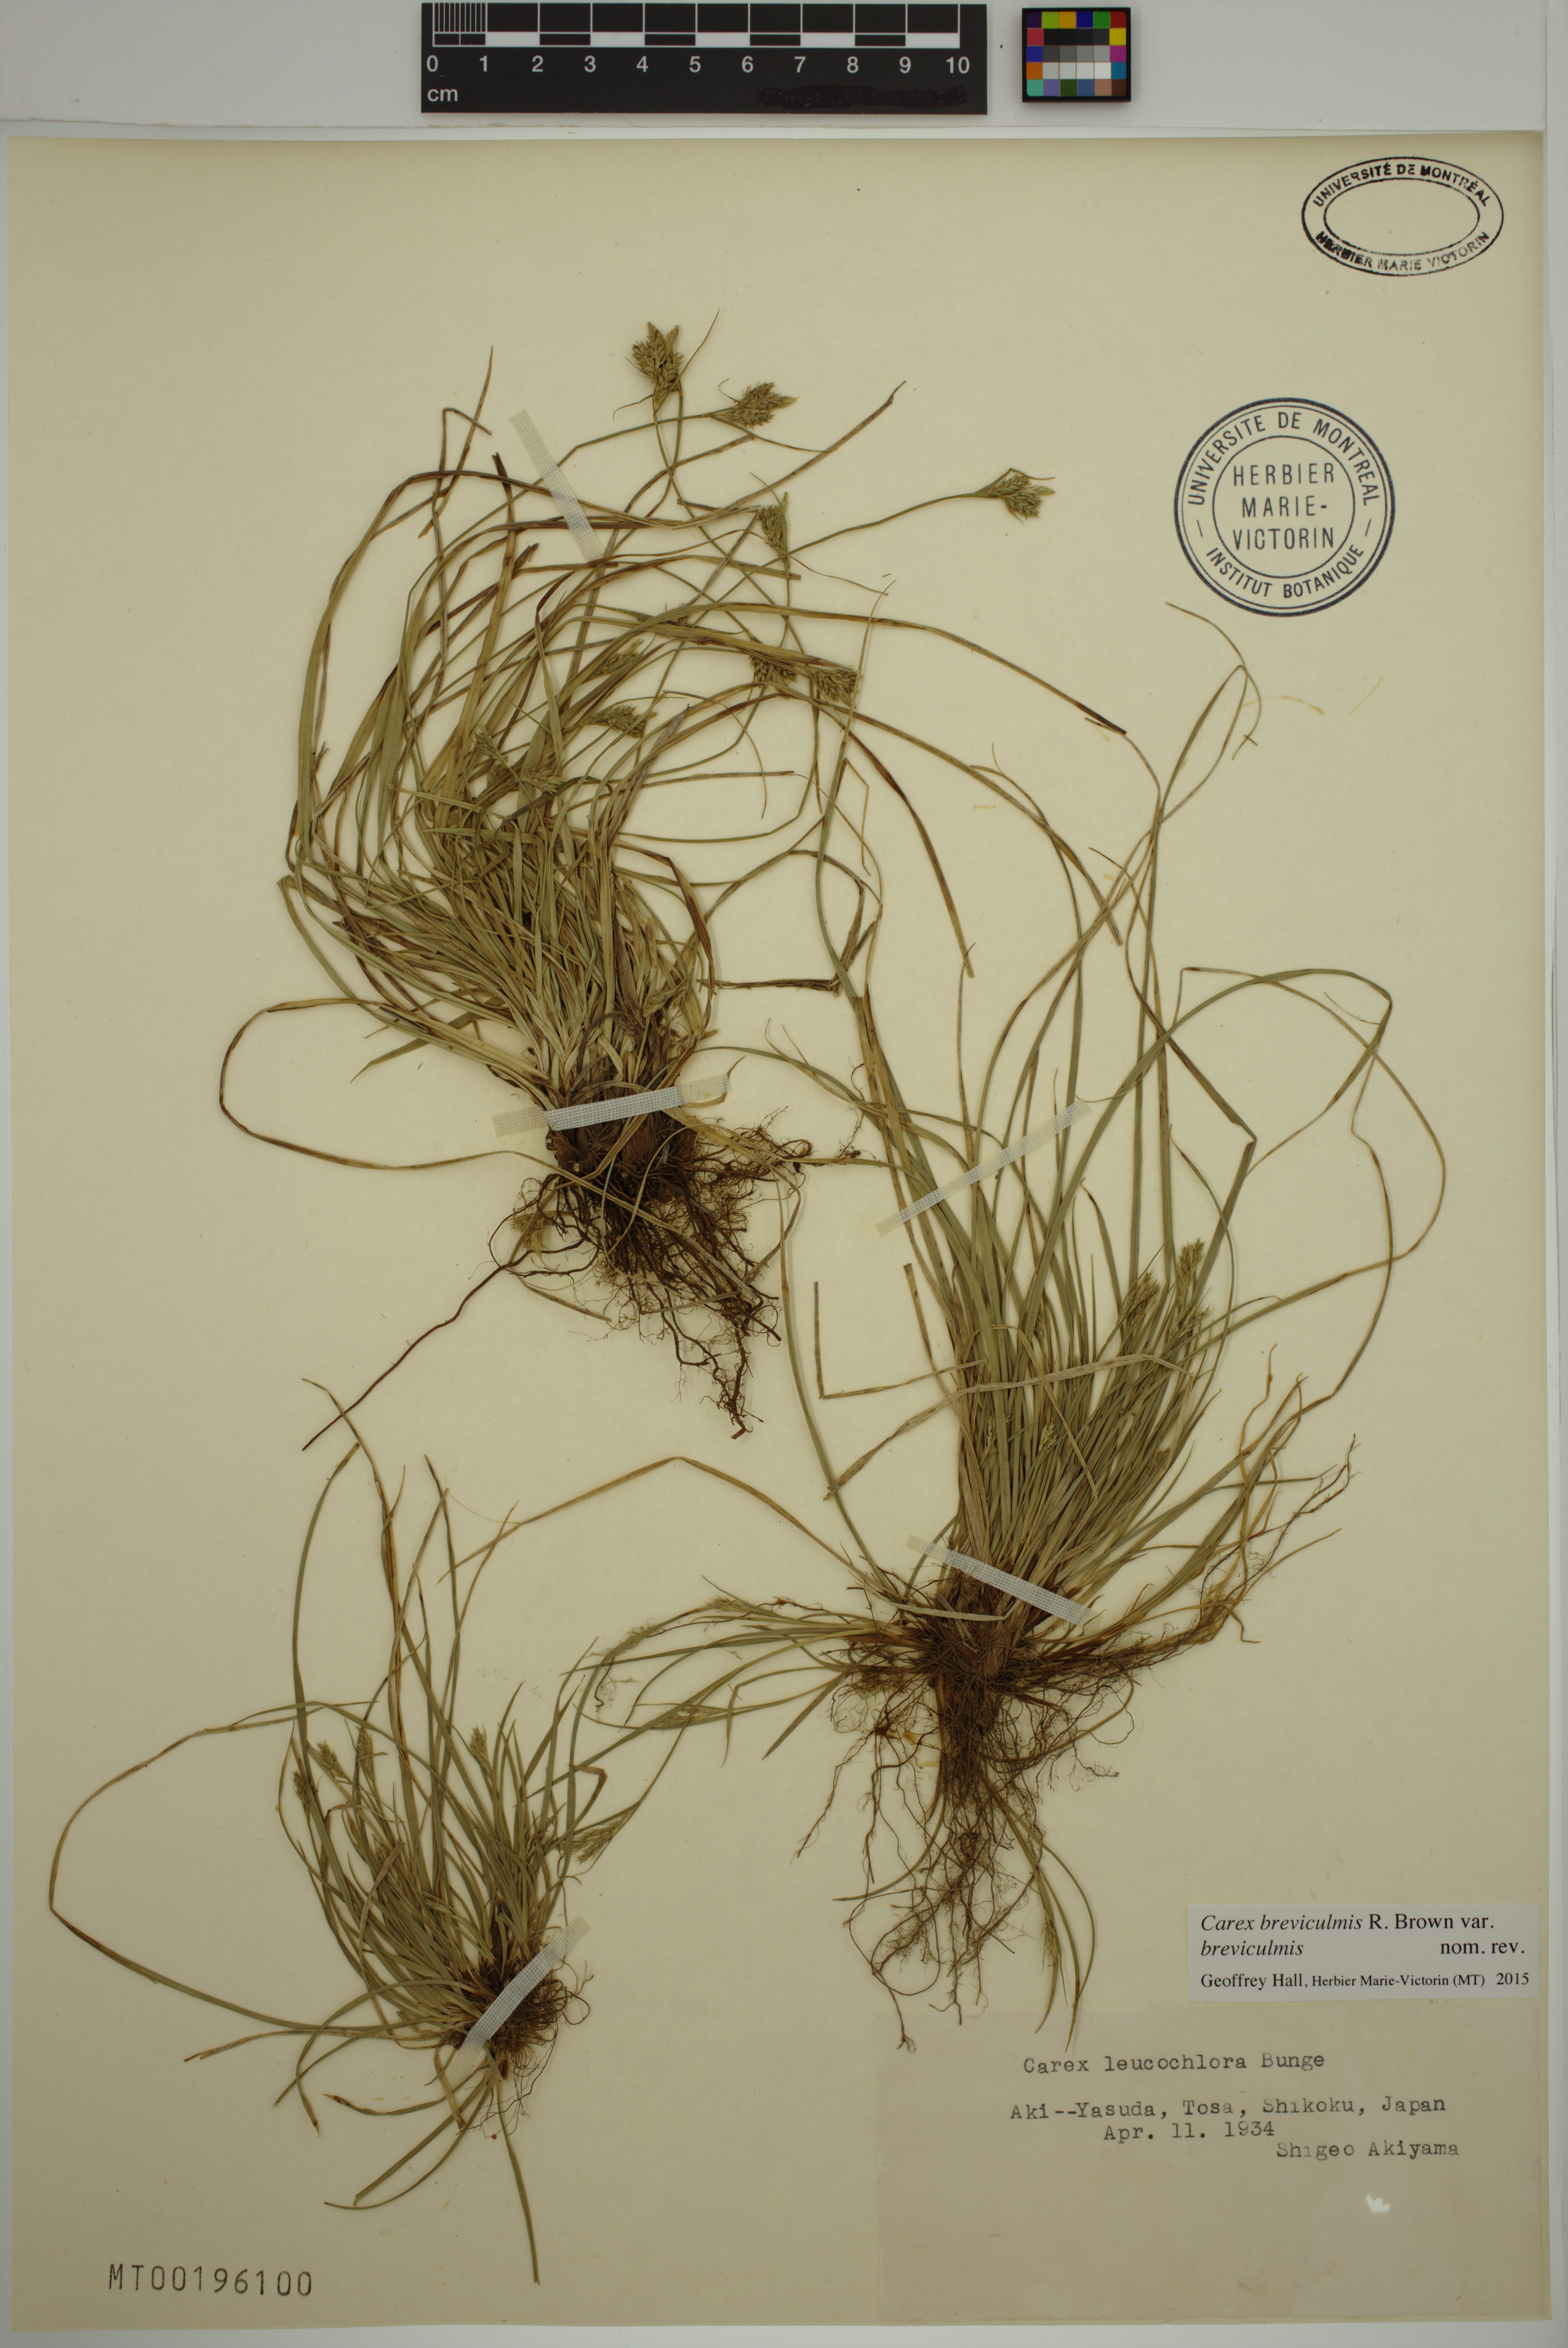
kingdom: Plantae
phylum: Tracheophyta
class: Liliopsida
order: Poales
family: Cyperaceae
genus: Carex
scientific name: Carex breviculmis
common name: Asian shortstem sedge
